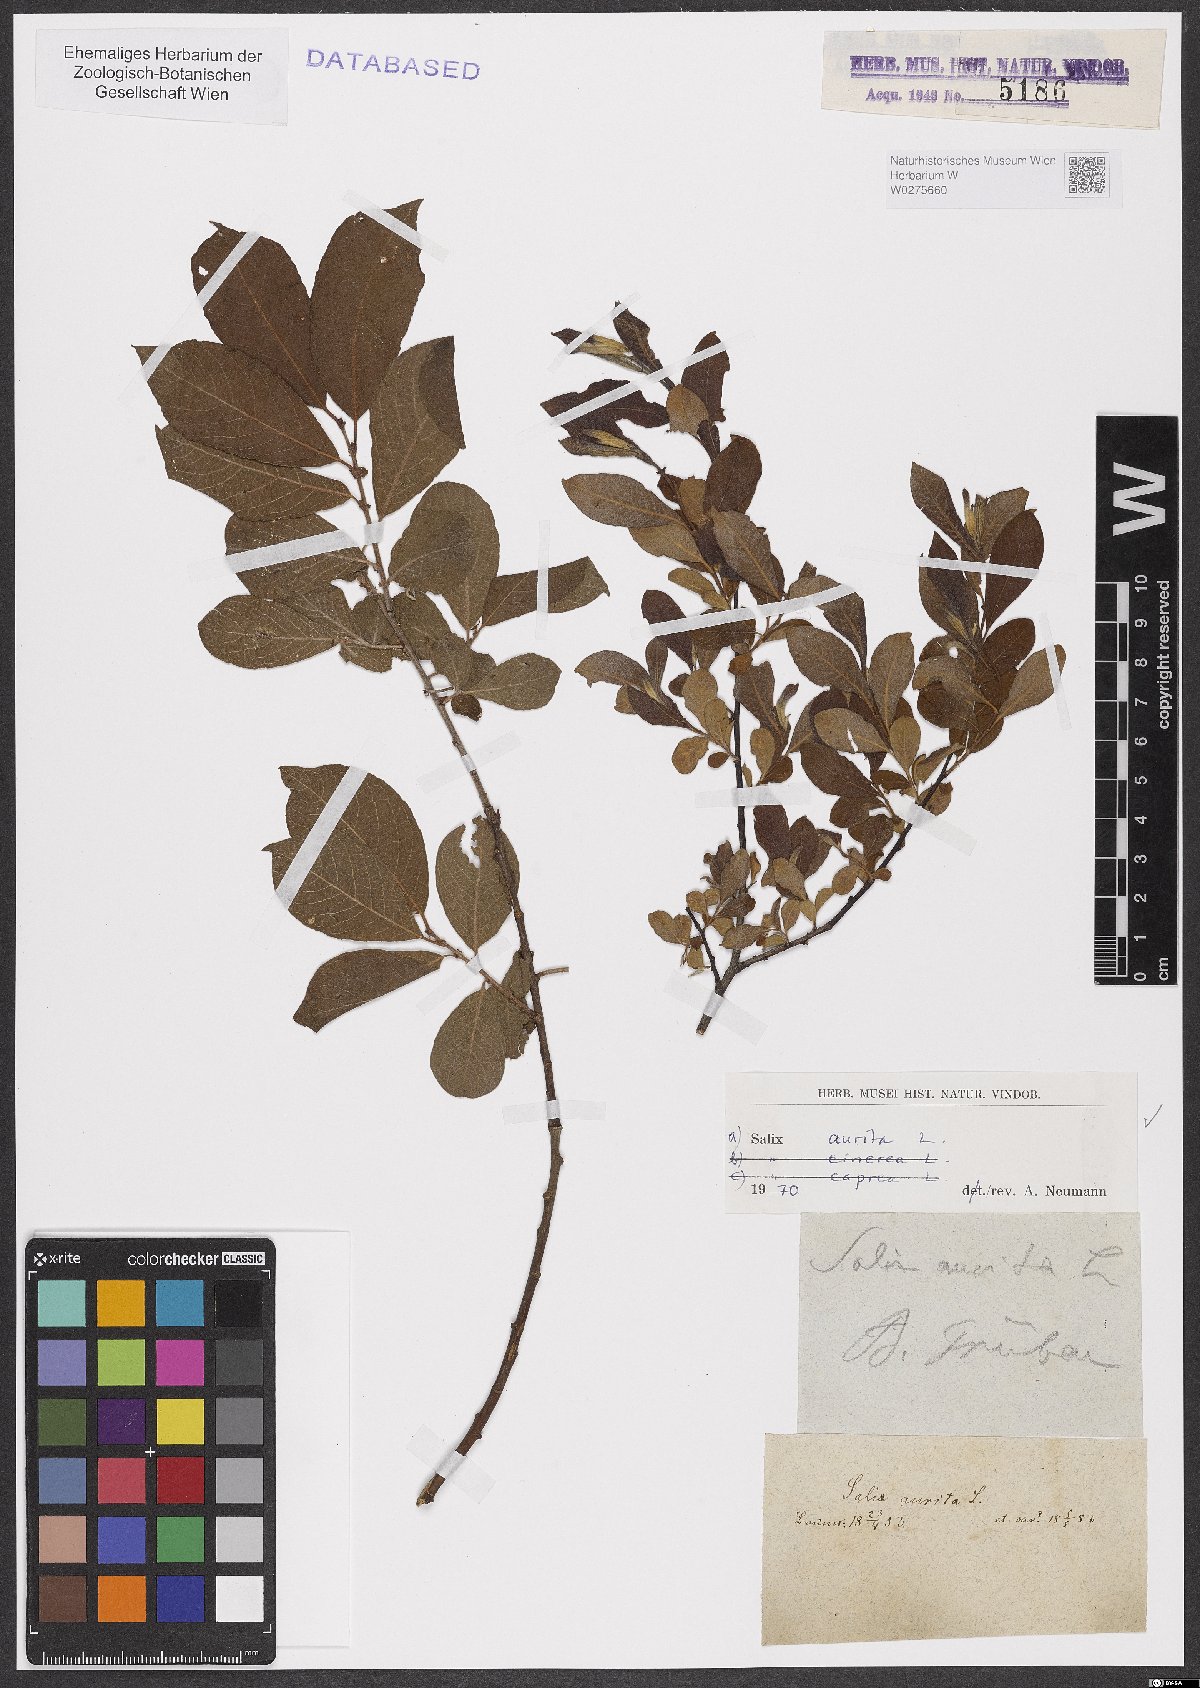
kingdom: Plantae
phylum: Tracheophyta
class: Magnoliopsida
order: Malpighiales
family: Salicaceae
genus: Salix
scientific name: Salix aurita
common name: Eared willow
